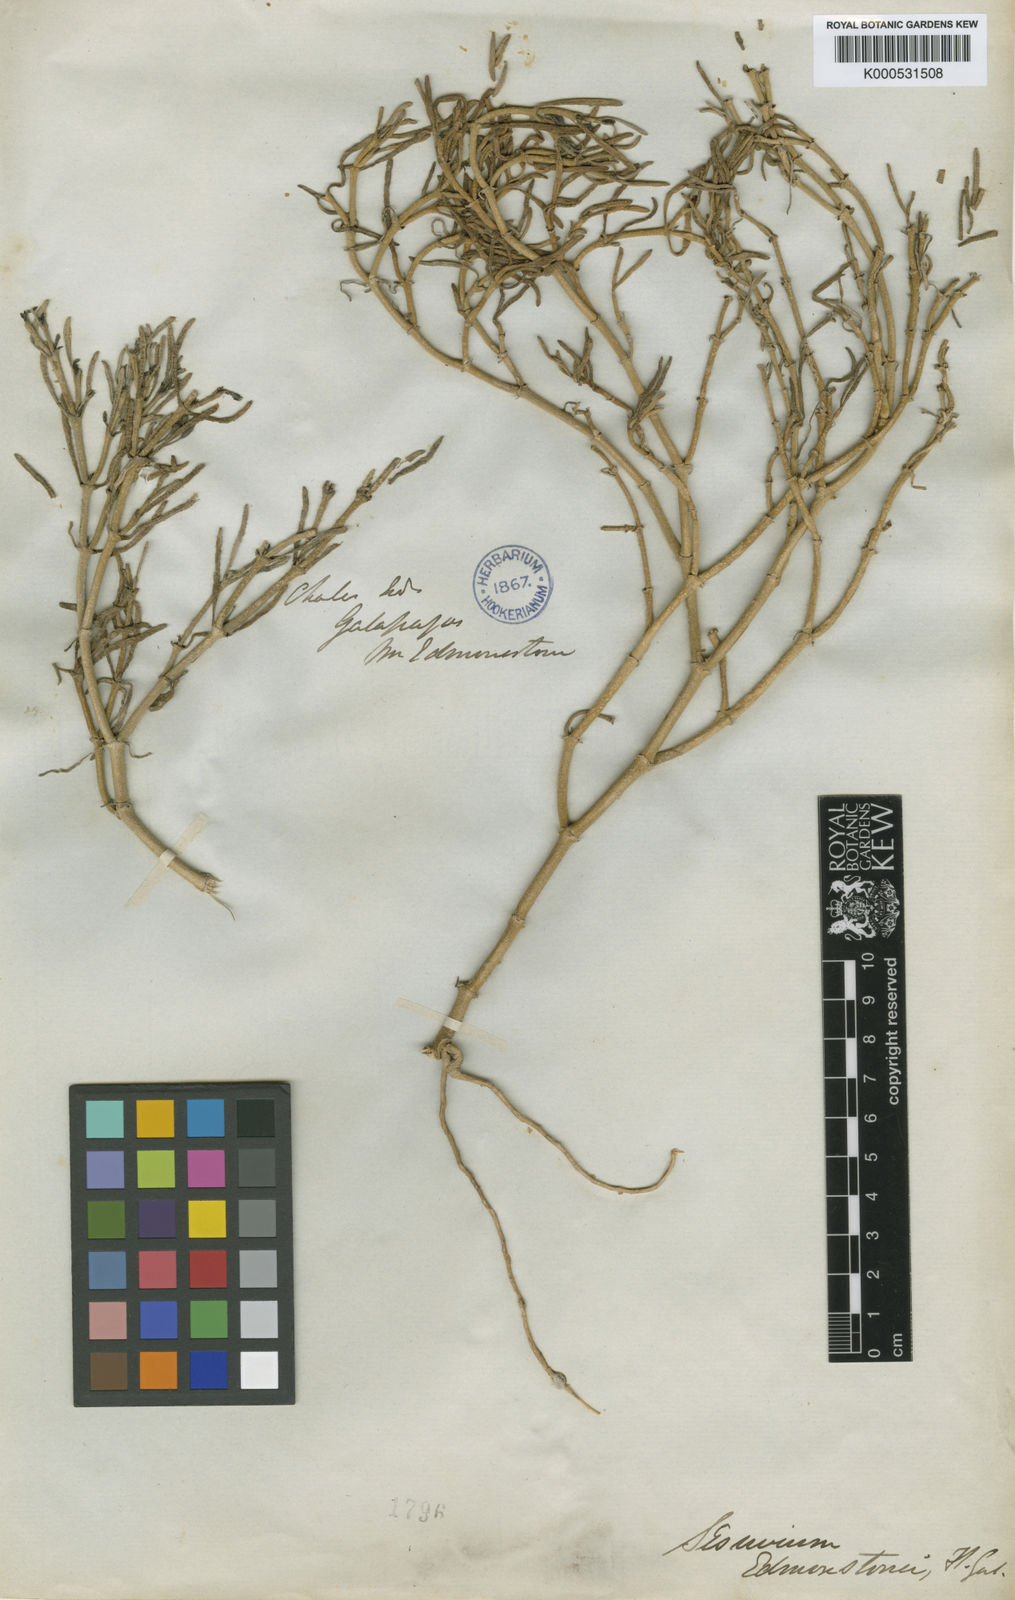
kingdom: Plantae
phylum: Tracheophyta
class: Magnoliopsida
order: Caryophyllales
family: Aizoaceae
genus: Sesuvium
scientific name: Sesuvium
